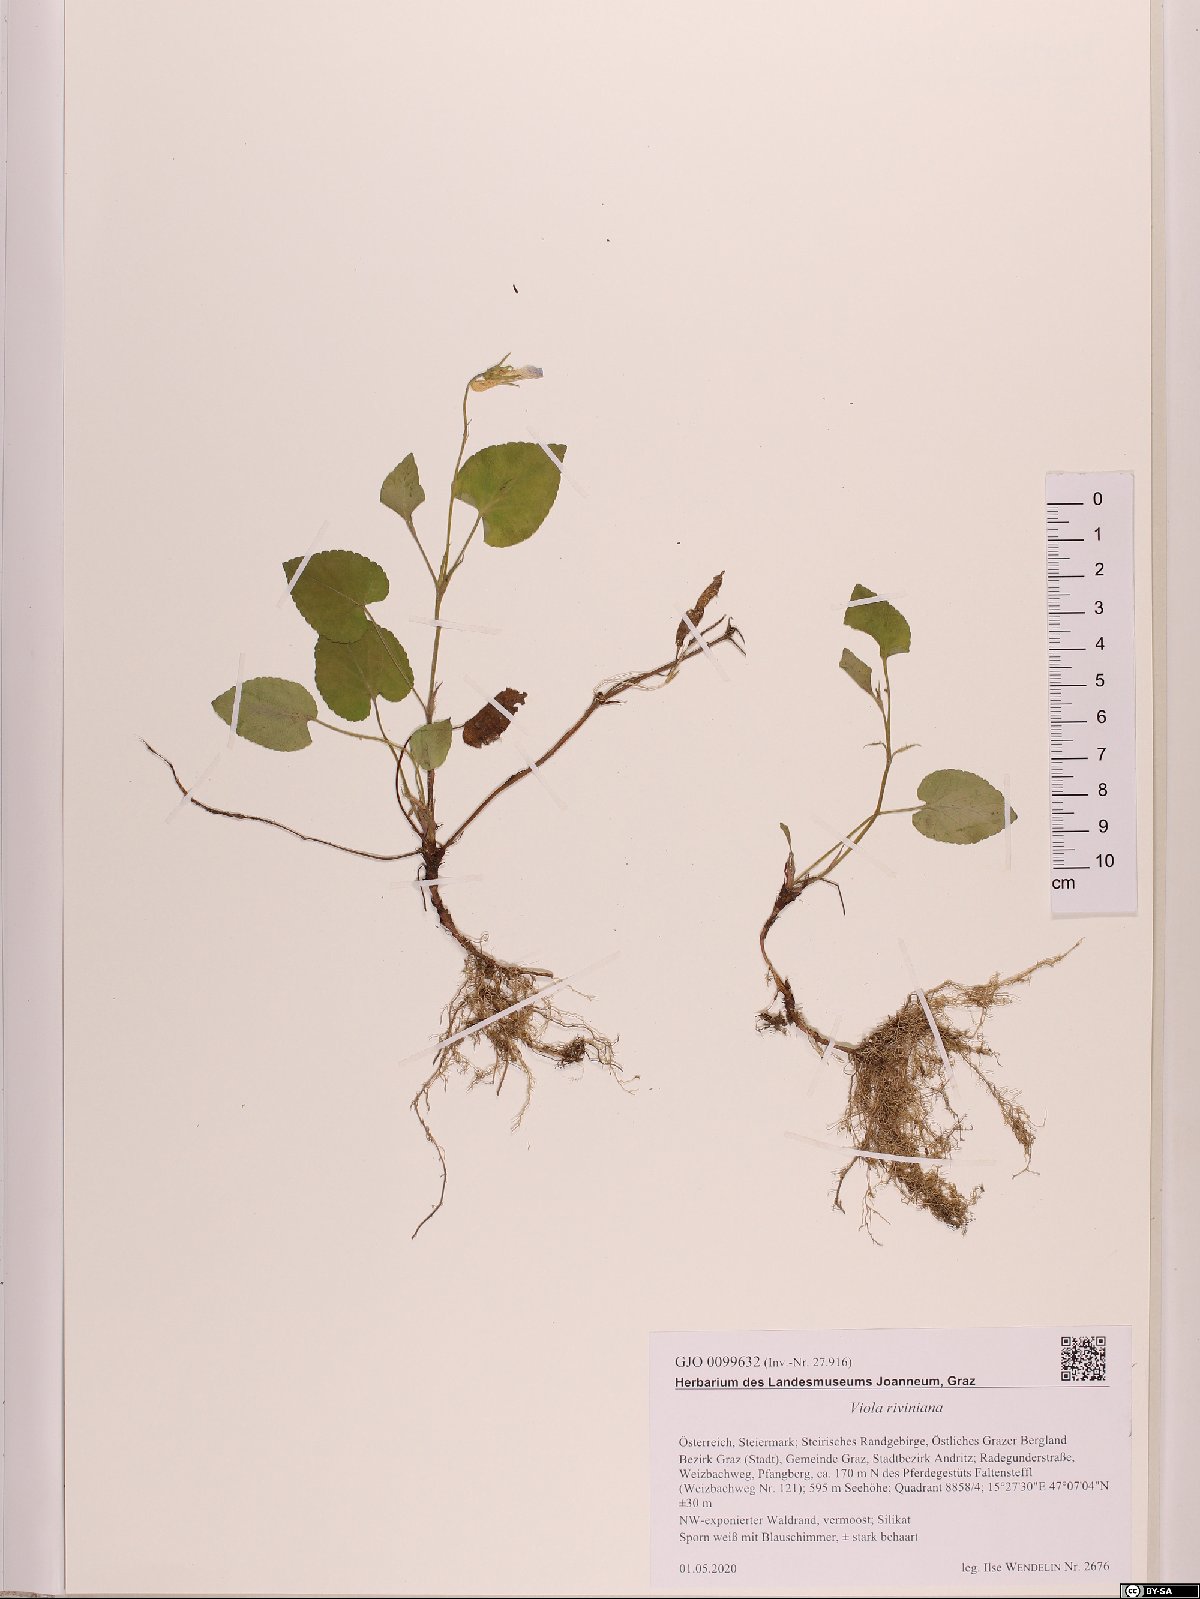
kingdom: Plantae
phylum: Tracheophyta
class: Magnoliopsida
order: Malpighiales
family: Violaceae
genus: Viola
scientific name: Viola riviniana
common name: Common dog-violet
